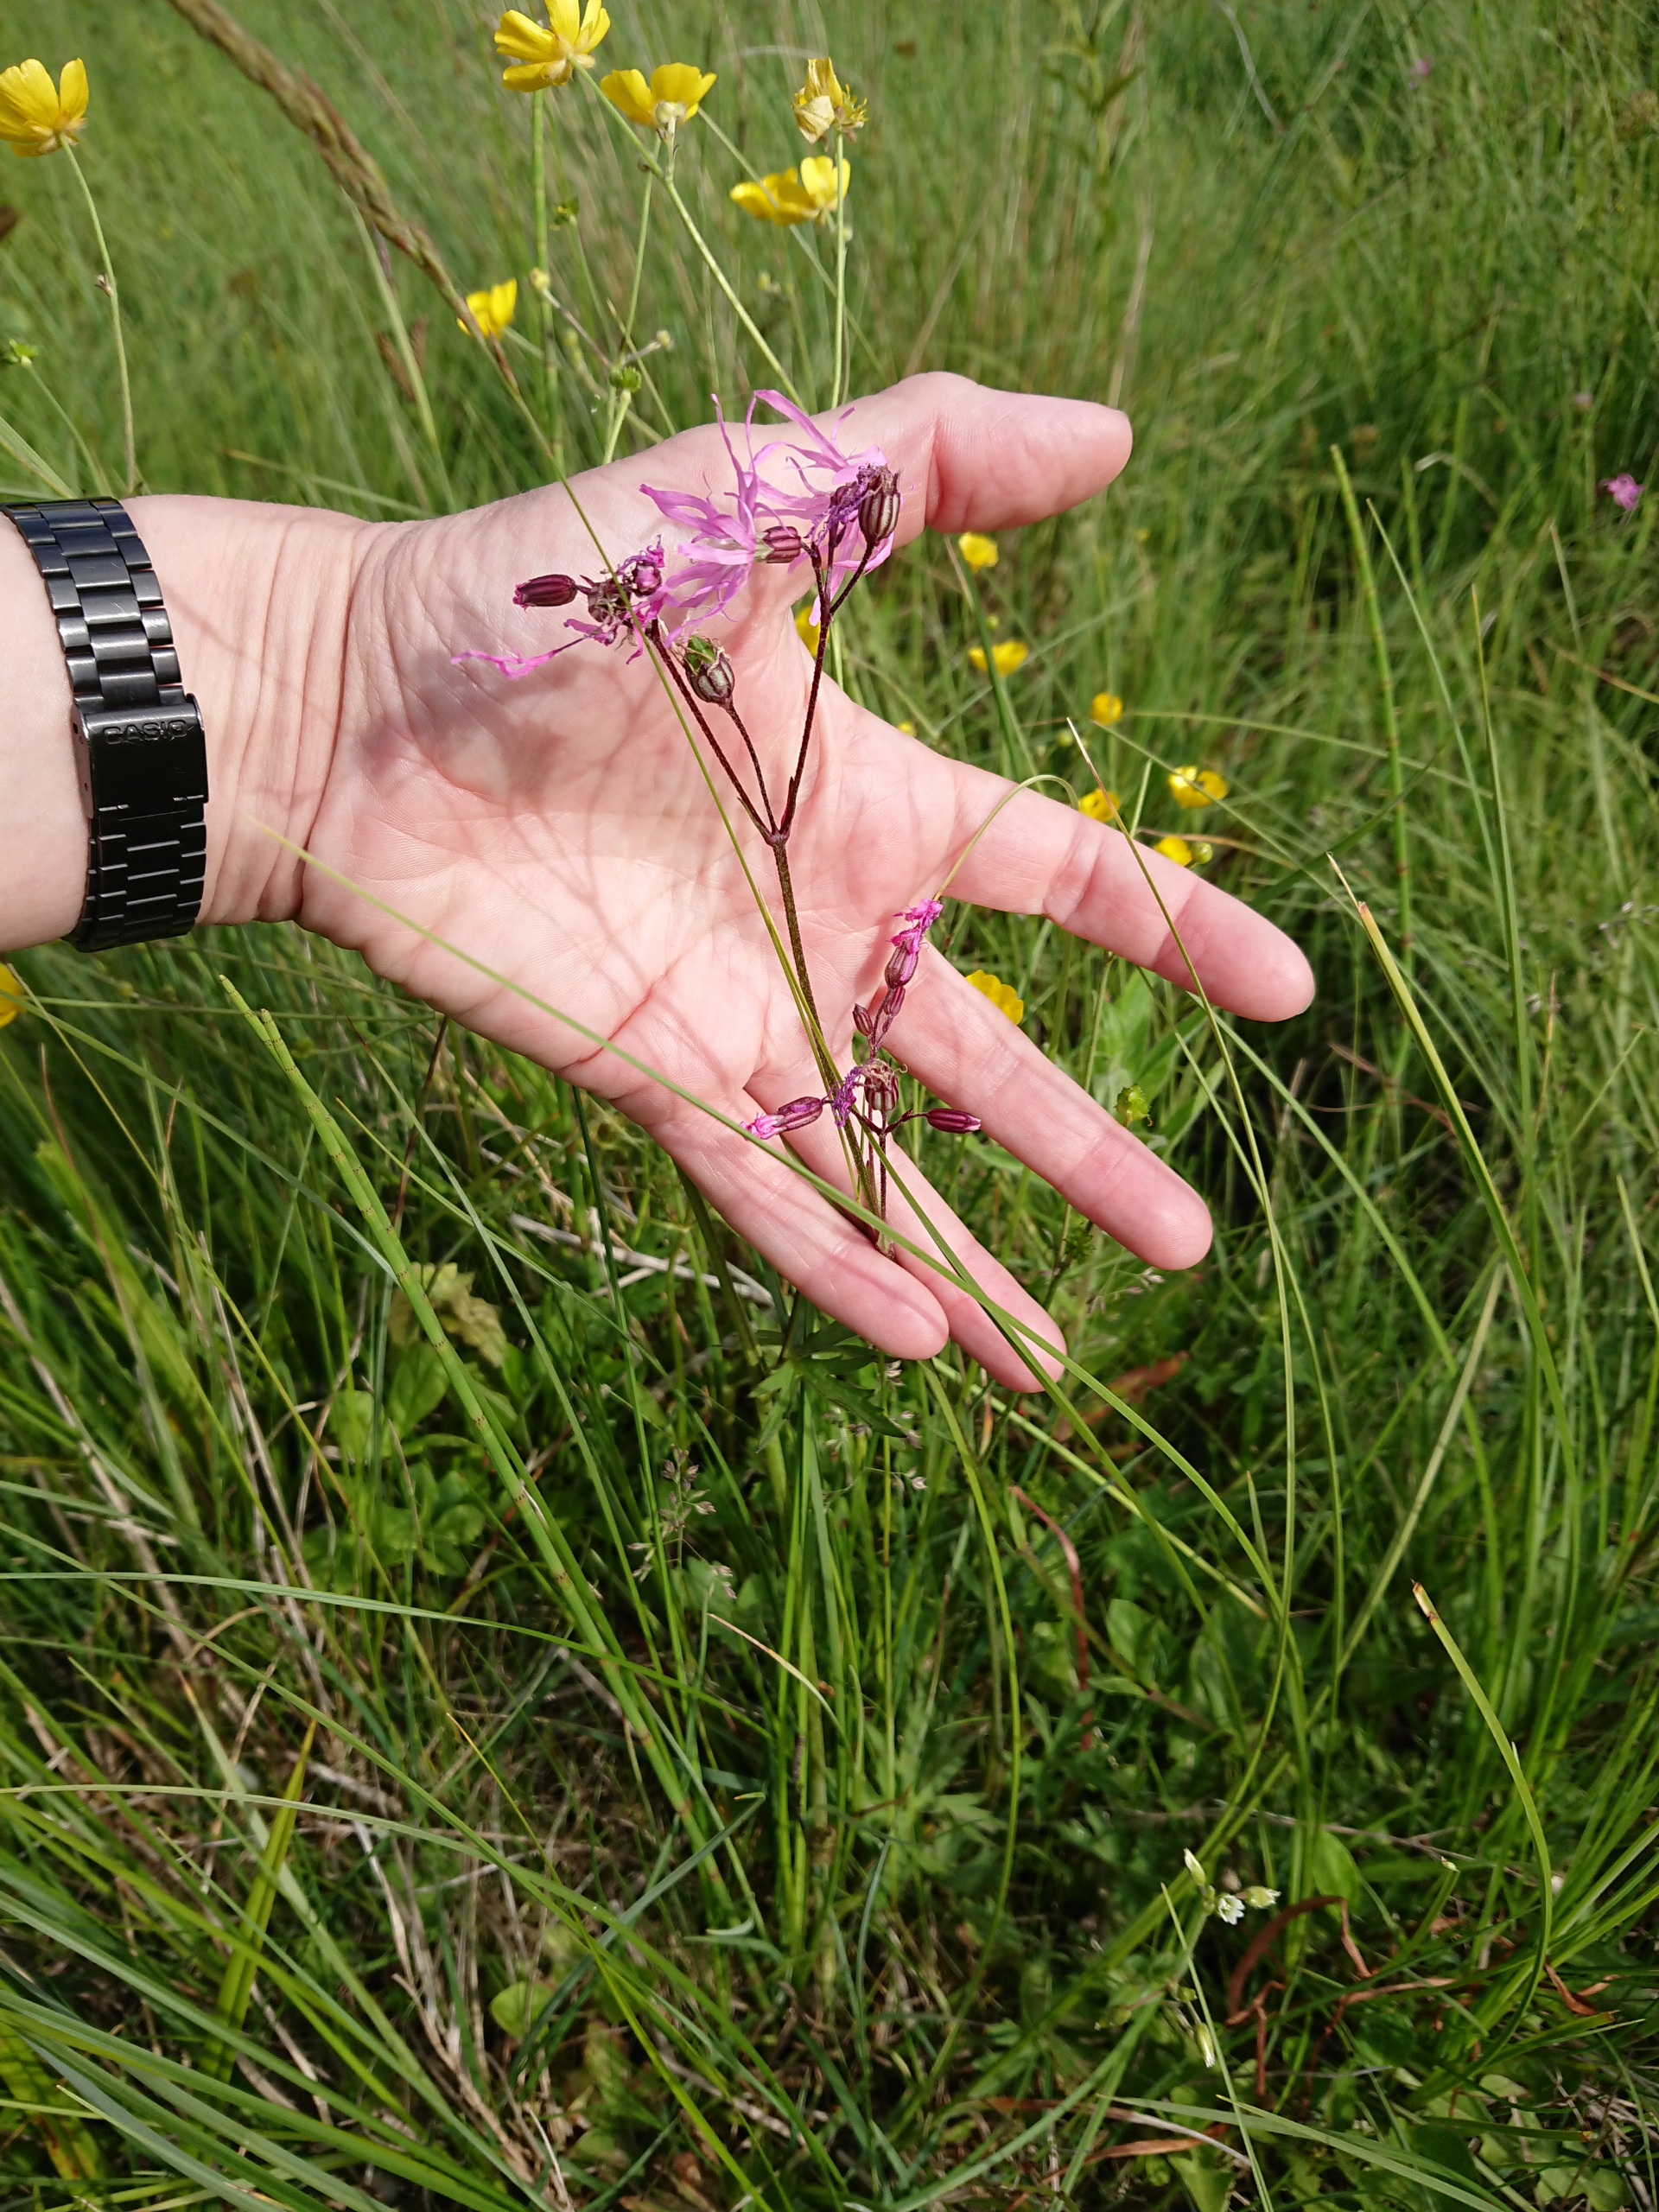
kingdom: Plantae
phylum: Tracheophyta
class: Magnoliopsida
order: Caryophyllales
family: Caryophyllaceae
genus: Silene
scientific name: Silene flos-cuculi
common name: Trævlekrone
